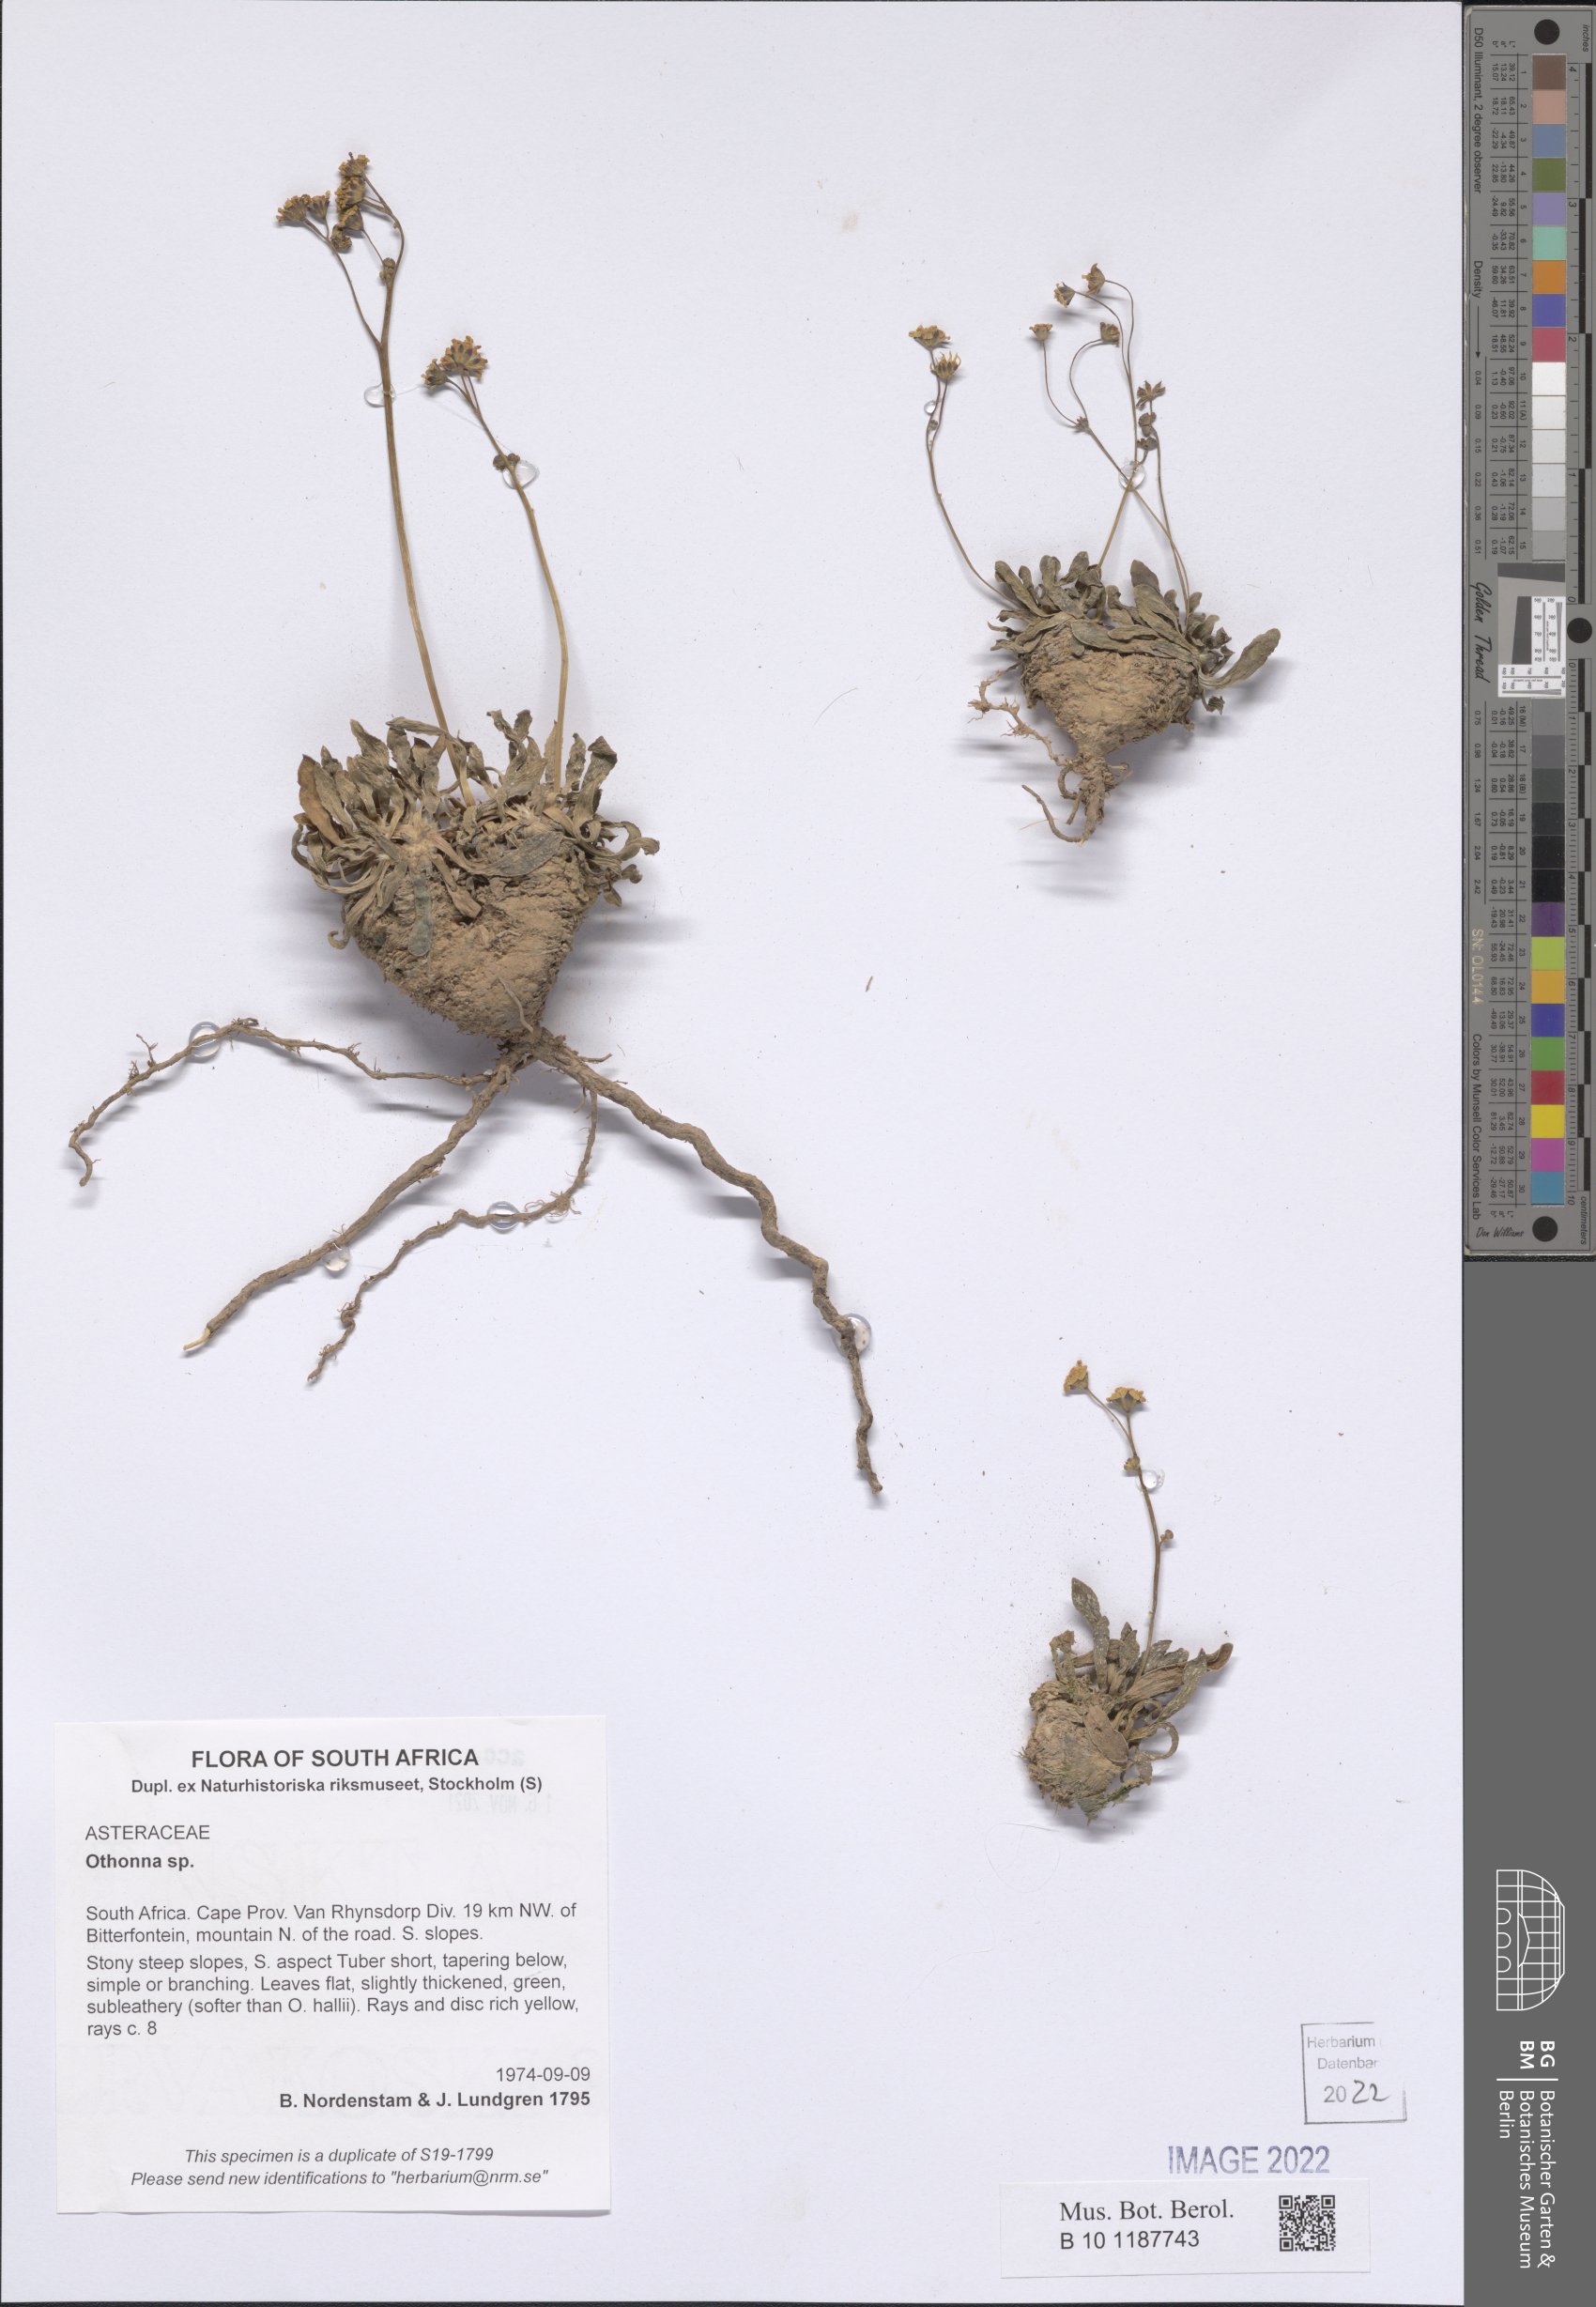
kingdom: Plantae
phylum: Tracheophyta
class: Magnoliopsida
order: Asterales
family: Asteraceae
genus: Othonna
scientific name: Othonna hallii
